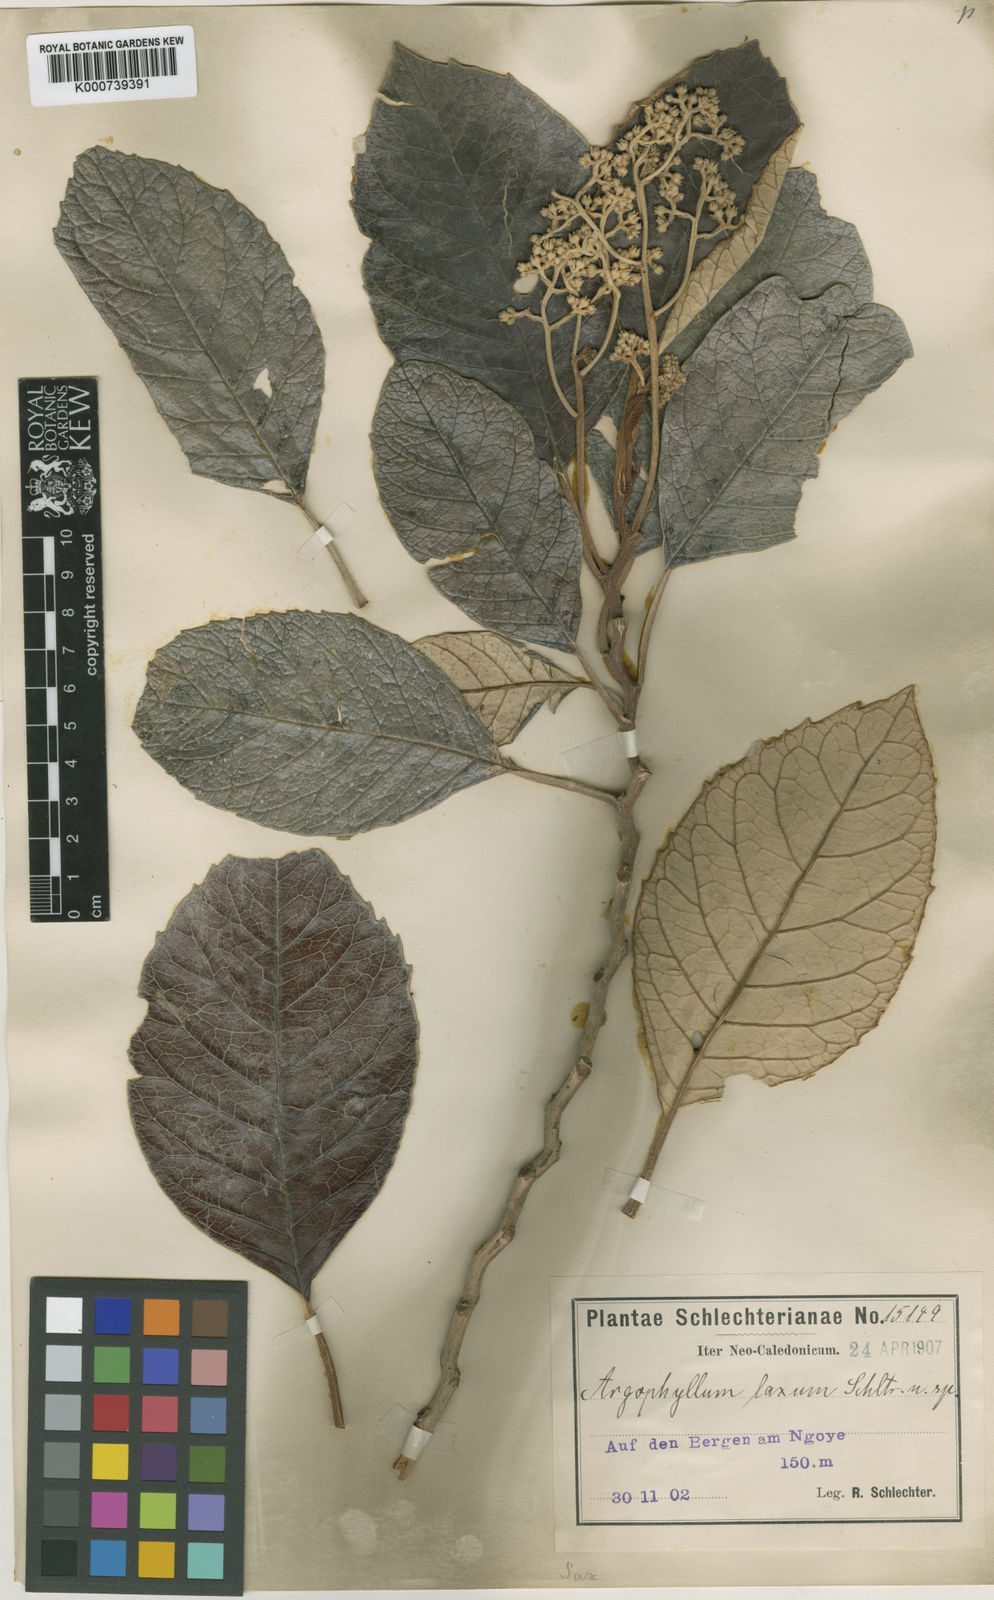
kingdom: Plantae
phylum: Tracheophyta
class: Magnoliopsida
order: Asterales
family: Argophyllaceae
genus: Argophyllum
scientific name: Argophyllum grunowii
